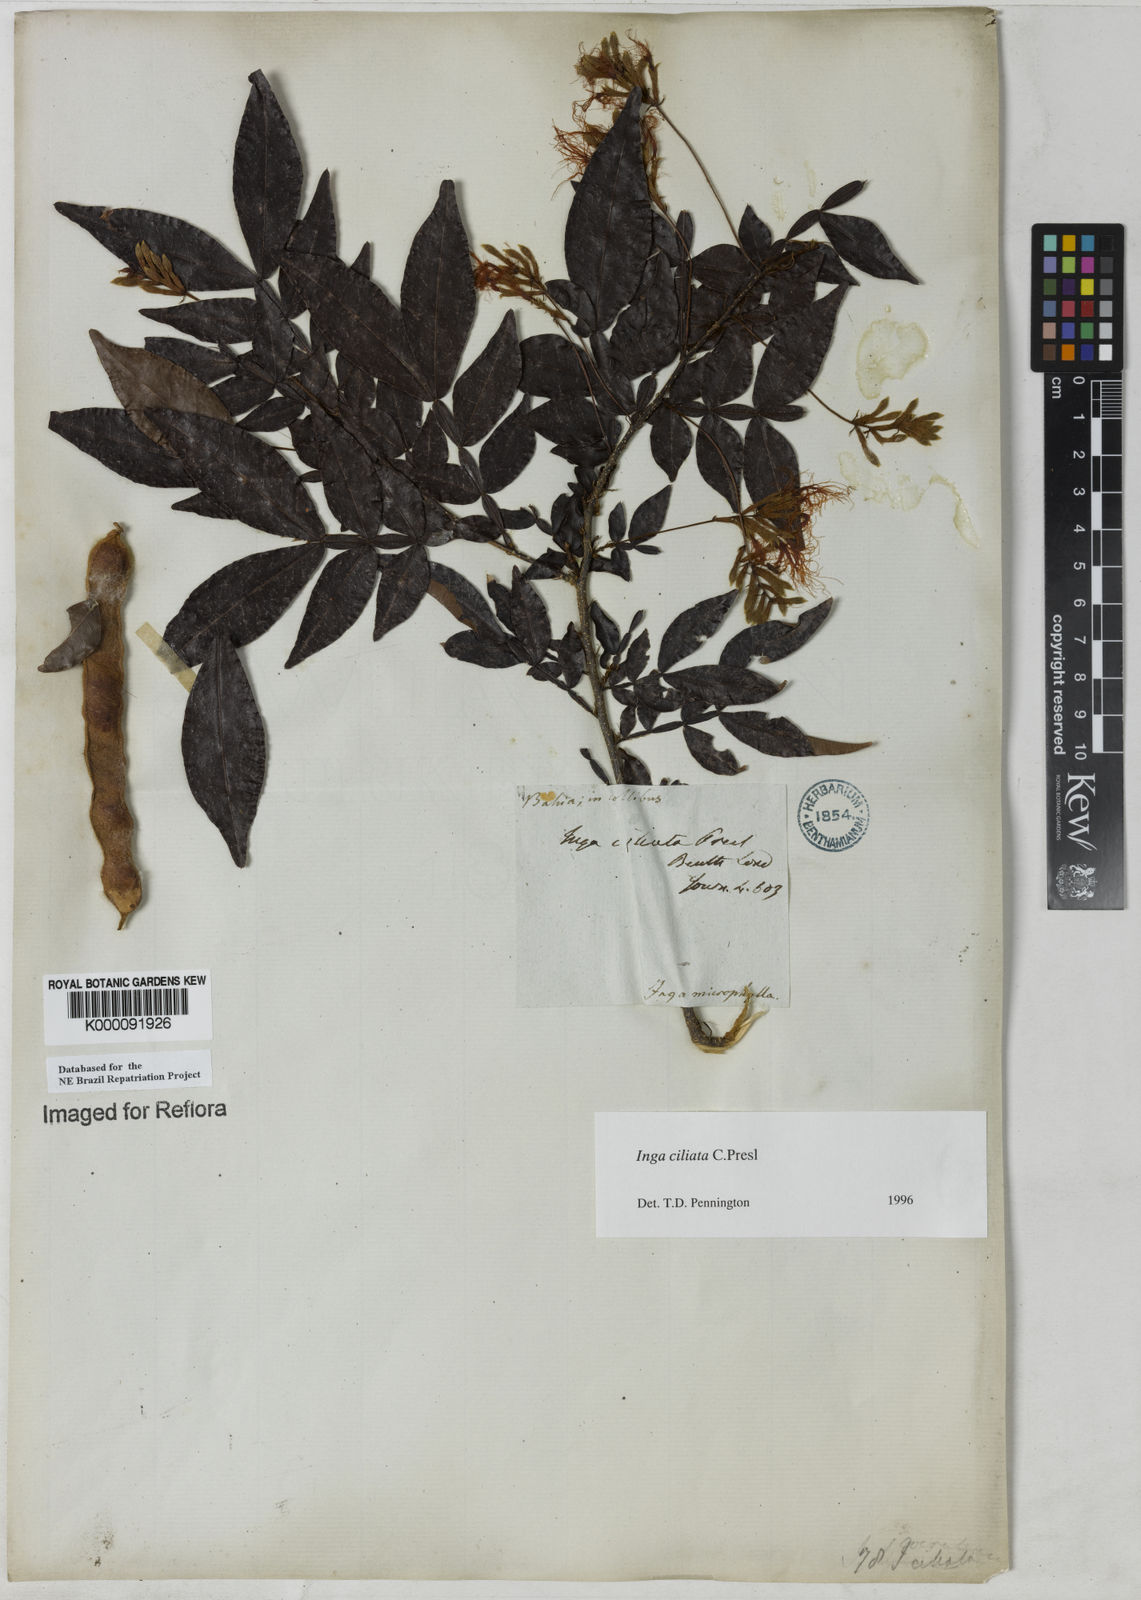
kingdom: Plantae
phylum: Tracheophyta
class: Magnoliopsida
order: Fabales
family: Fabaceae
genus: Inga
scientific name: Inga ciliata
